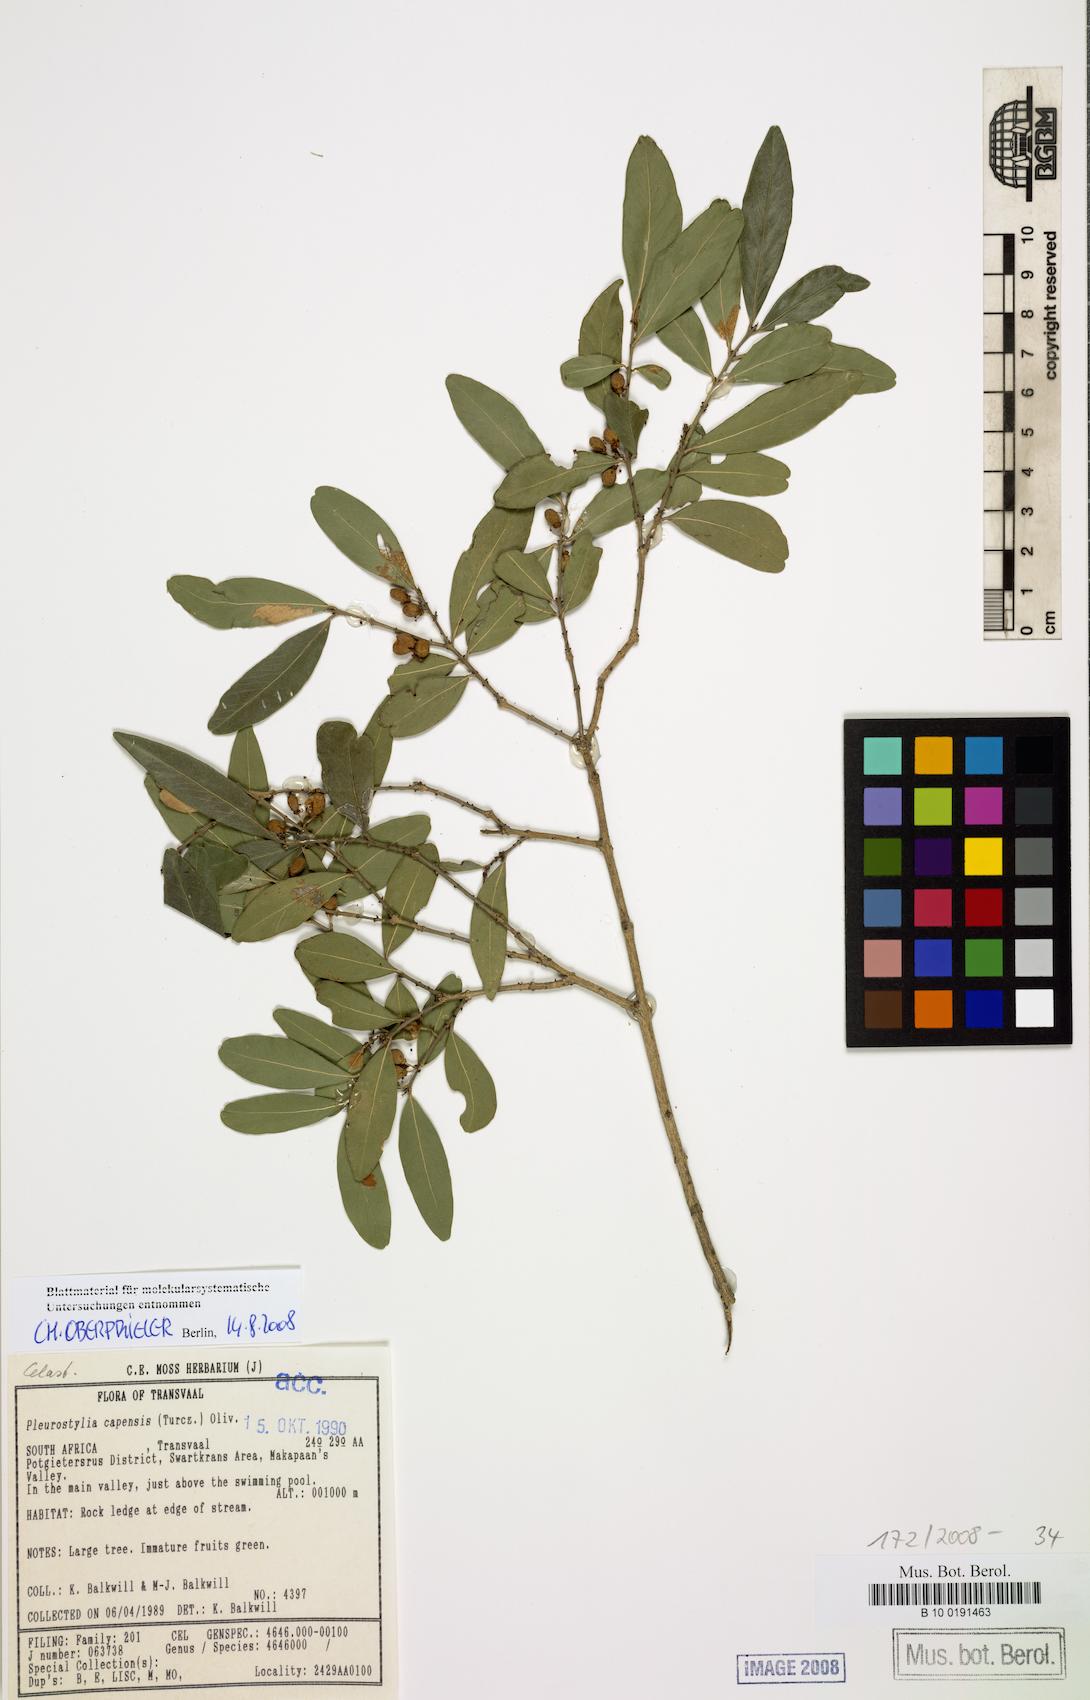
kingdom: Plantae
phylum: Tracheophyta
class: Magnoliopsida
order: Celastrales
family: Celastraceae
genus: Pleurostylia
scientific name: Pleurostylia capensis
